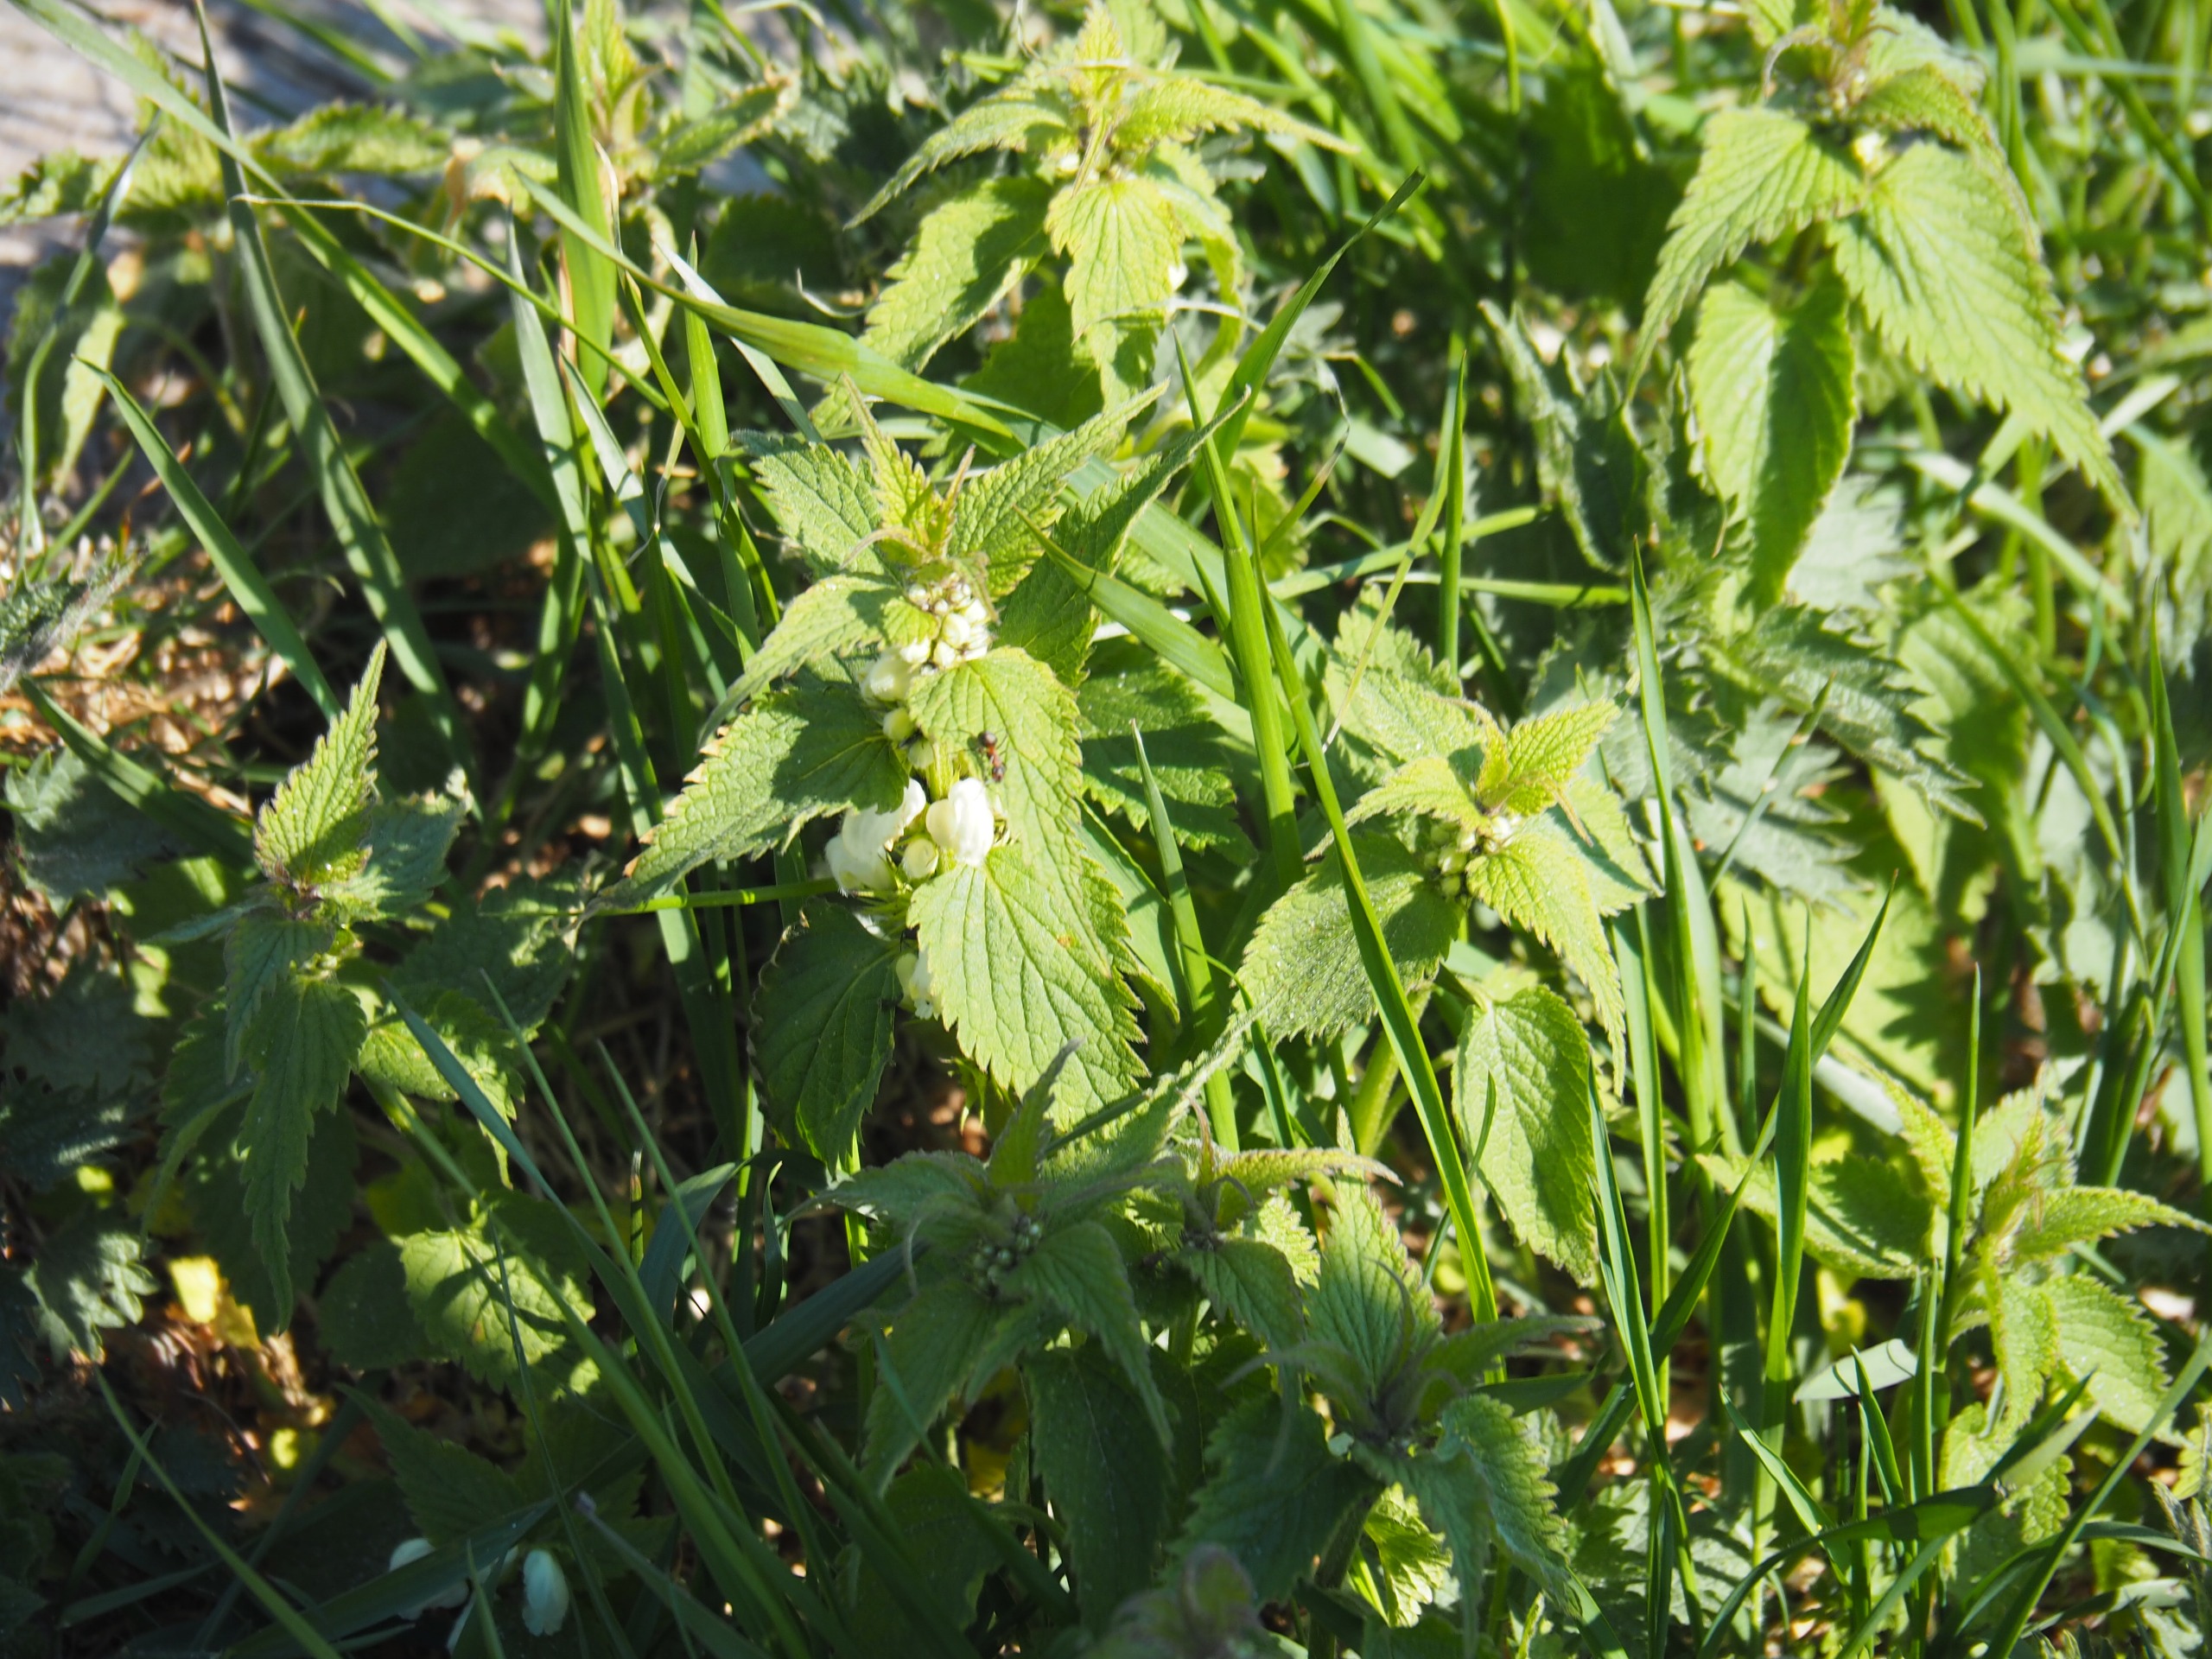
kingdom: Plantae
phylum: Tracheophyta
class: Magnoliopsida
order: Lamiales
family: Lamiaceae
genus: Lamium
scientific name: Lamium album
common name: Døvnælde
